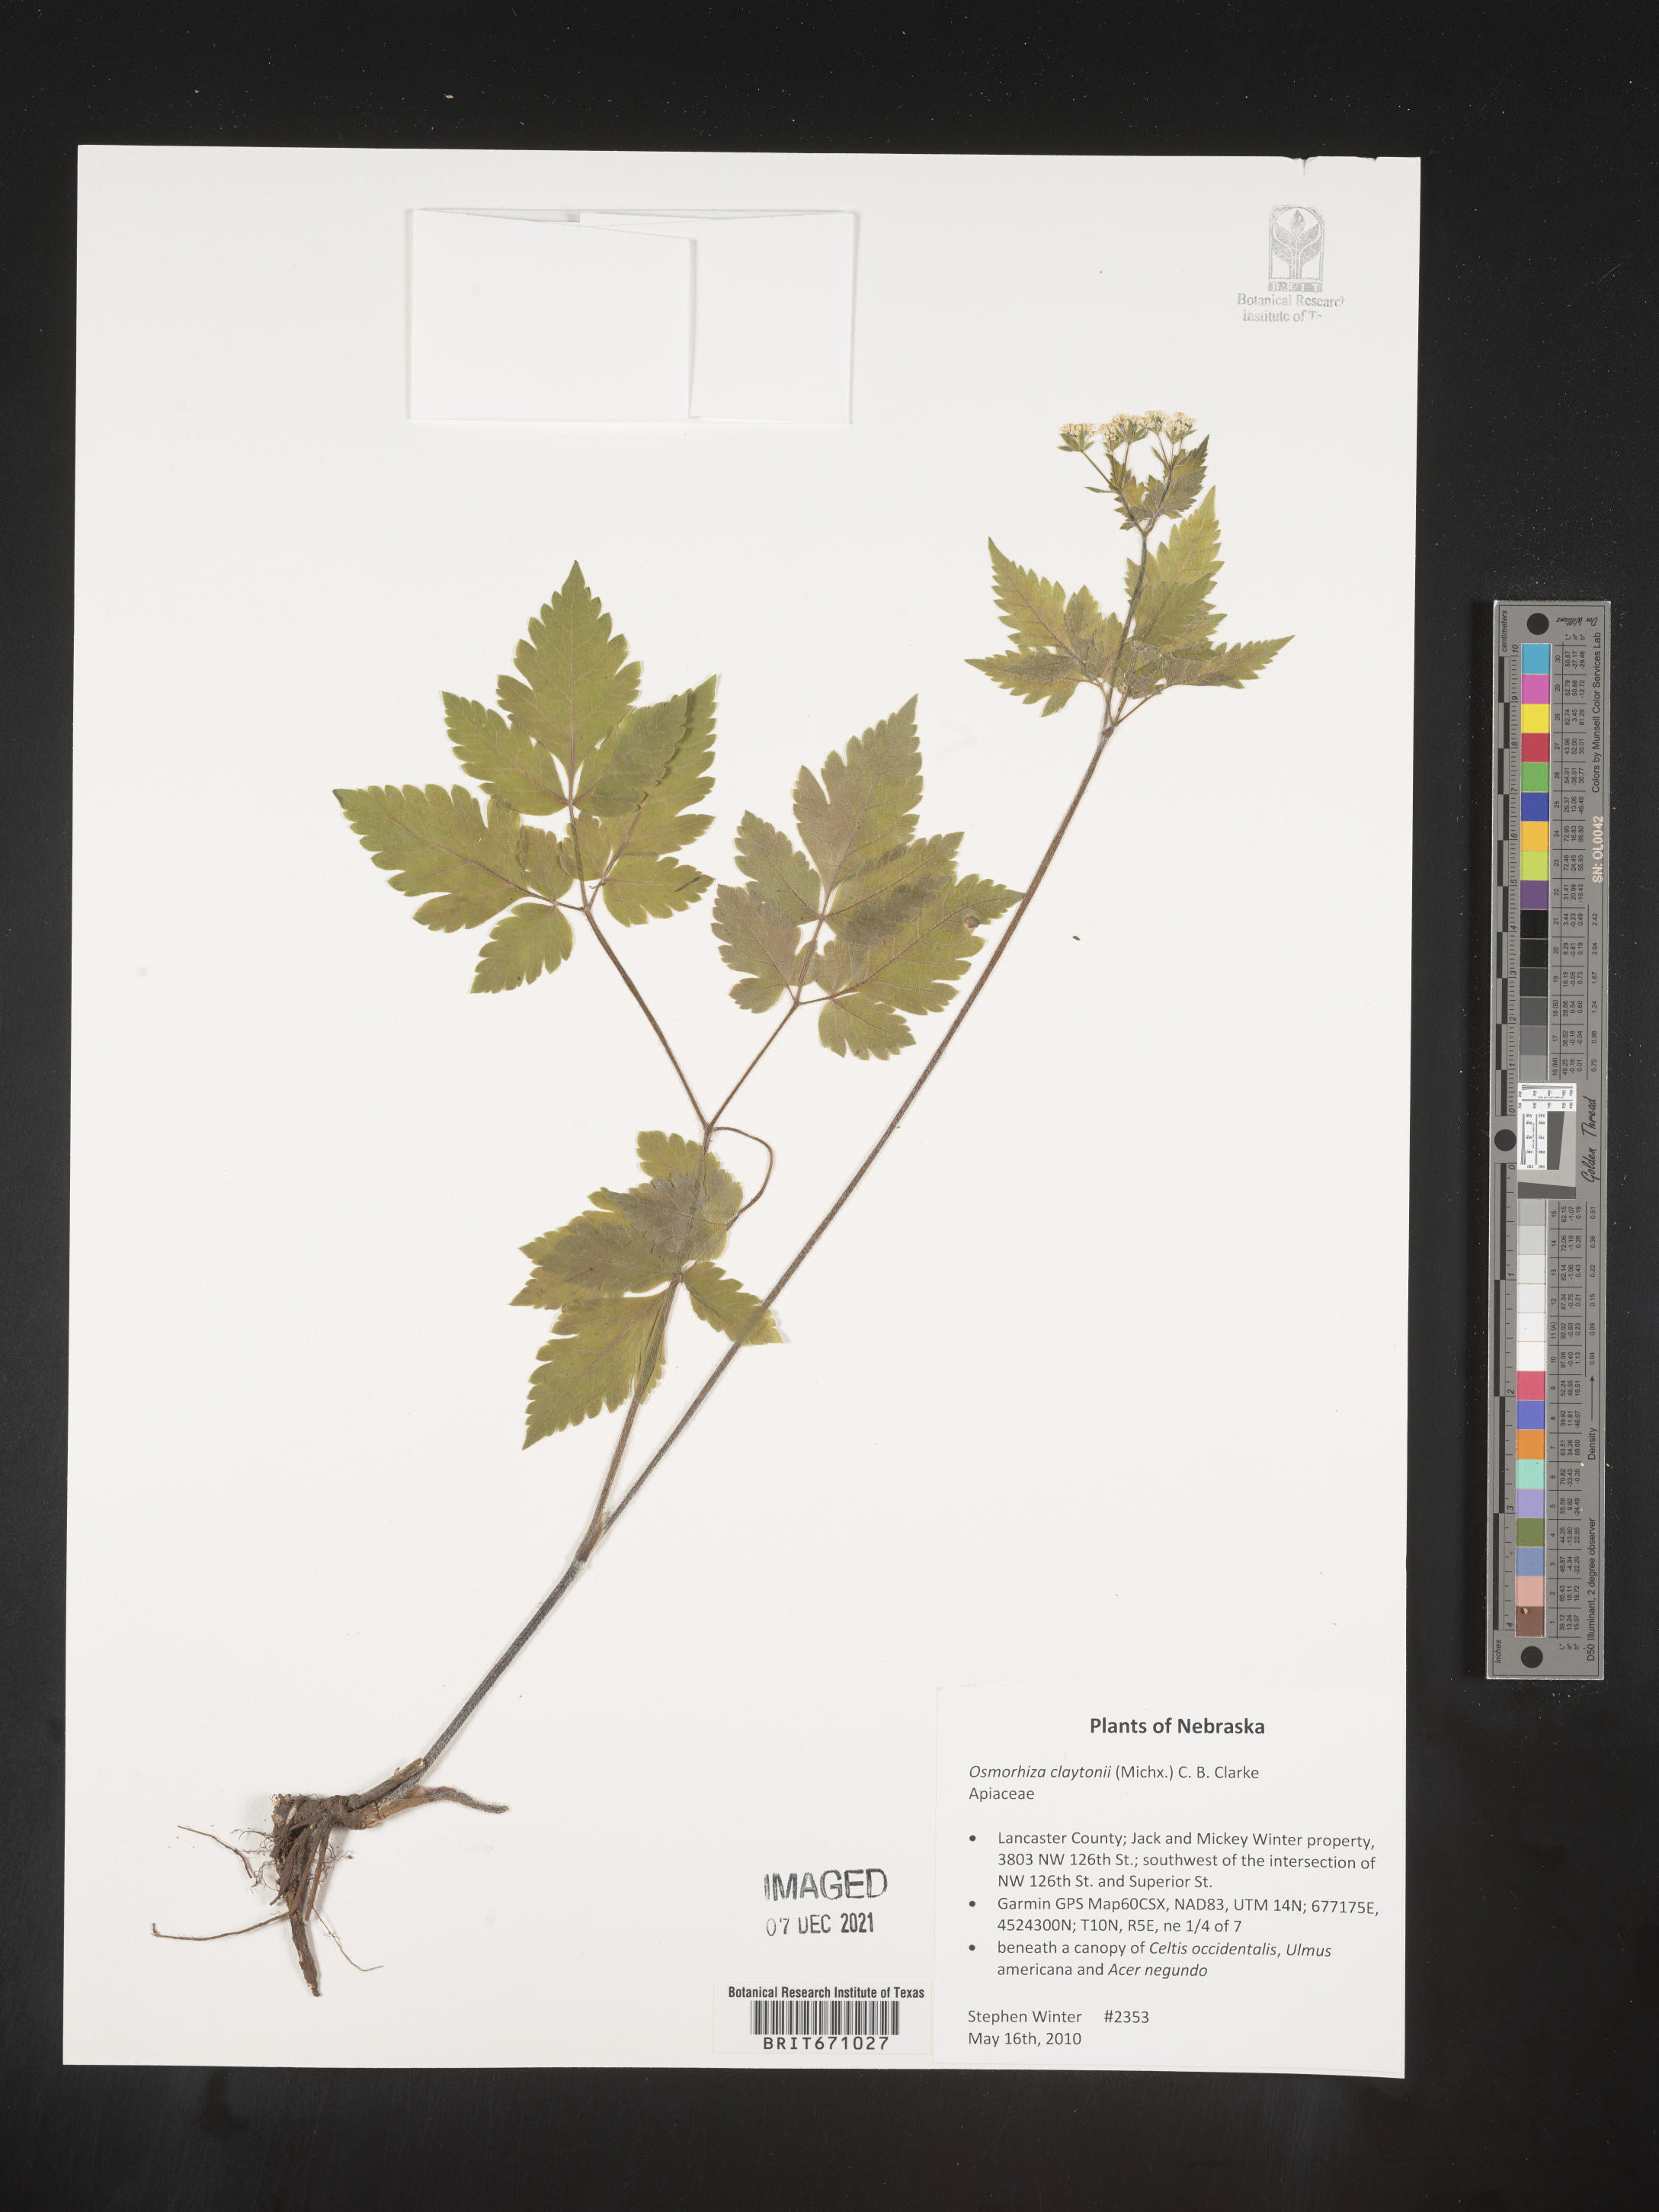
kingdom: Plantae
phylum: Tracheophyta
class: Magnoliopsida
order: Apiales
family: Apiaceae
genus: Osmorhiza
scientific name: Osmorhiza claytonii
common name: Hairy sweet cicely
